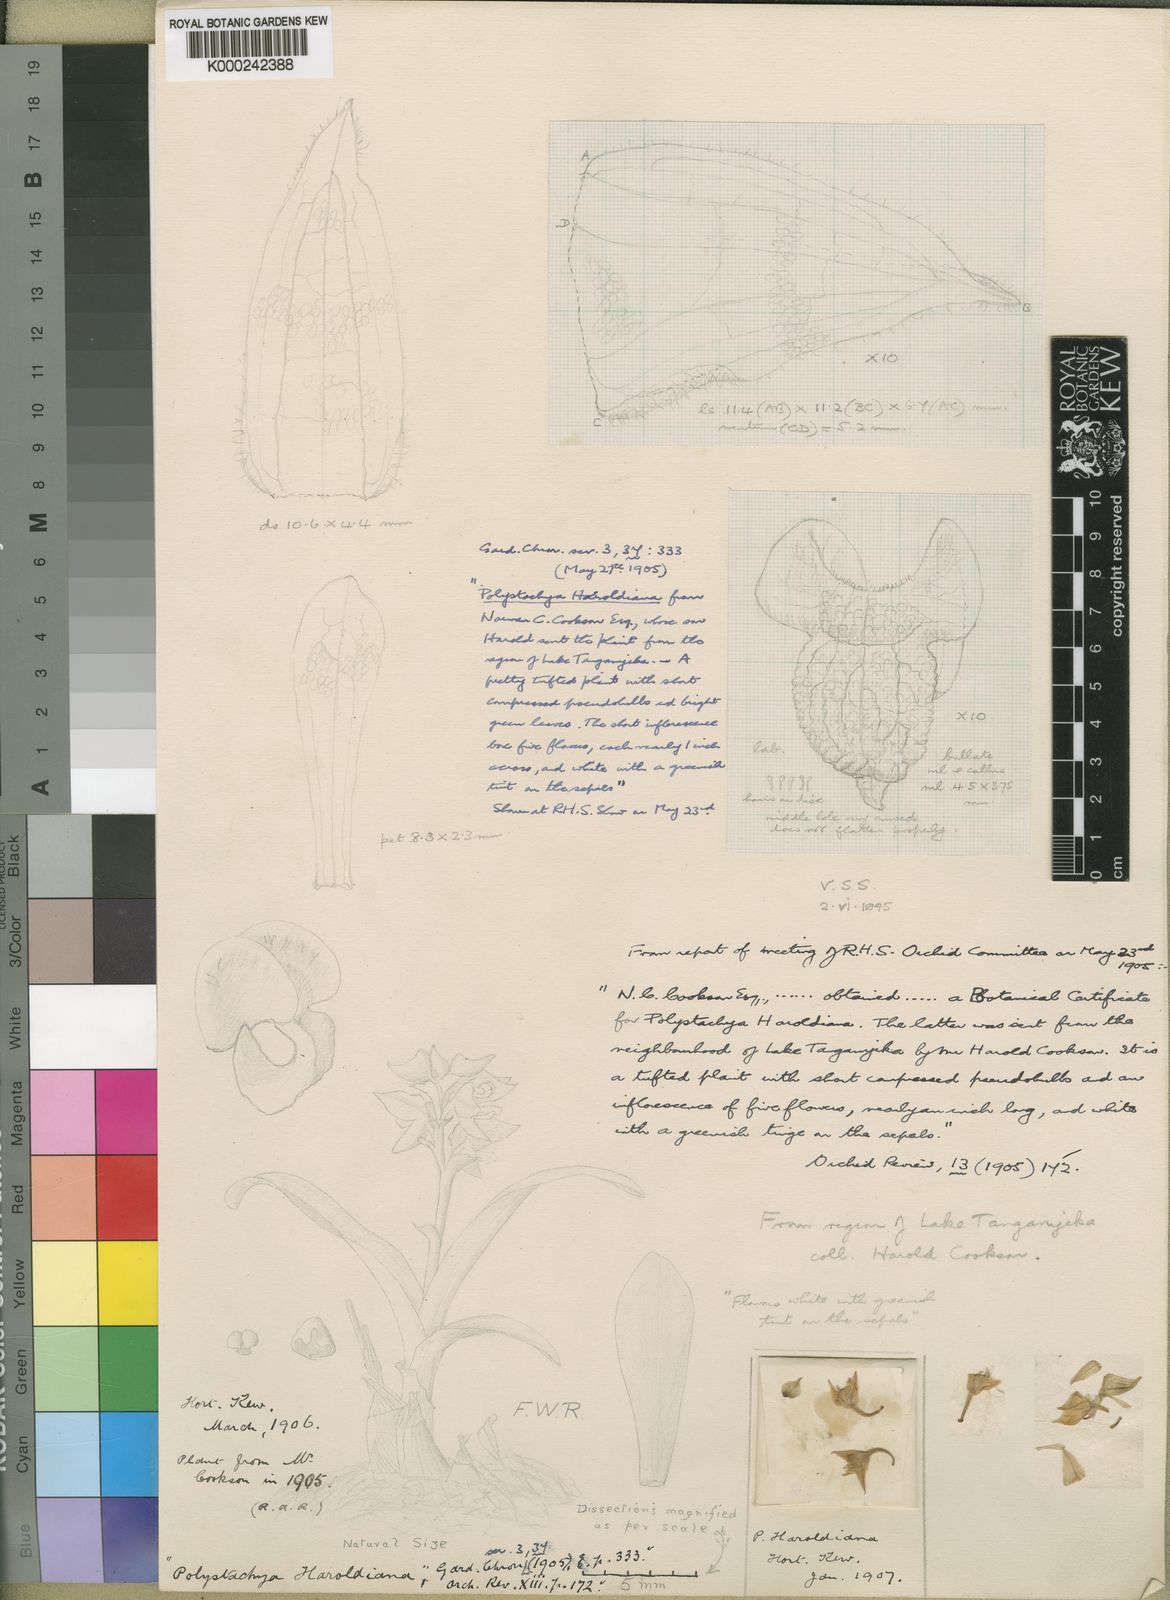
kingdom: Plantae
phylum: Tracheophyta
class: Liliopsida
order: Asparagales
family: Orchidaceae
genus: Polystachya
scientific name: Polystachya haroldiana
